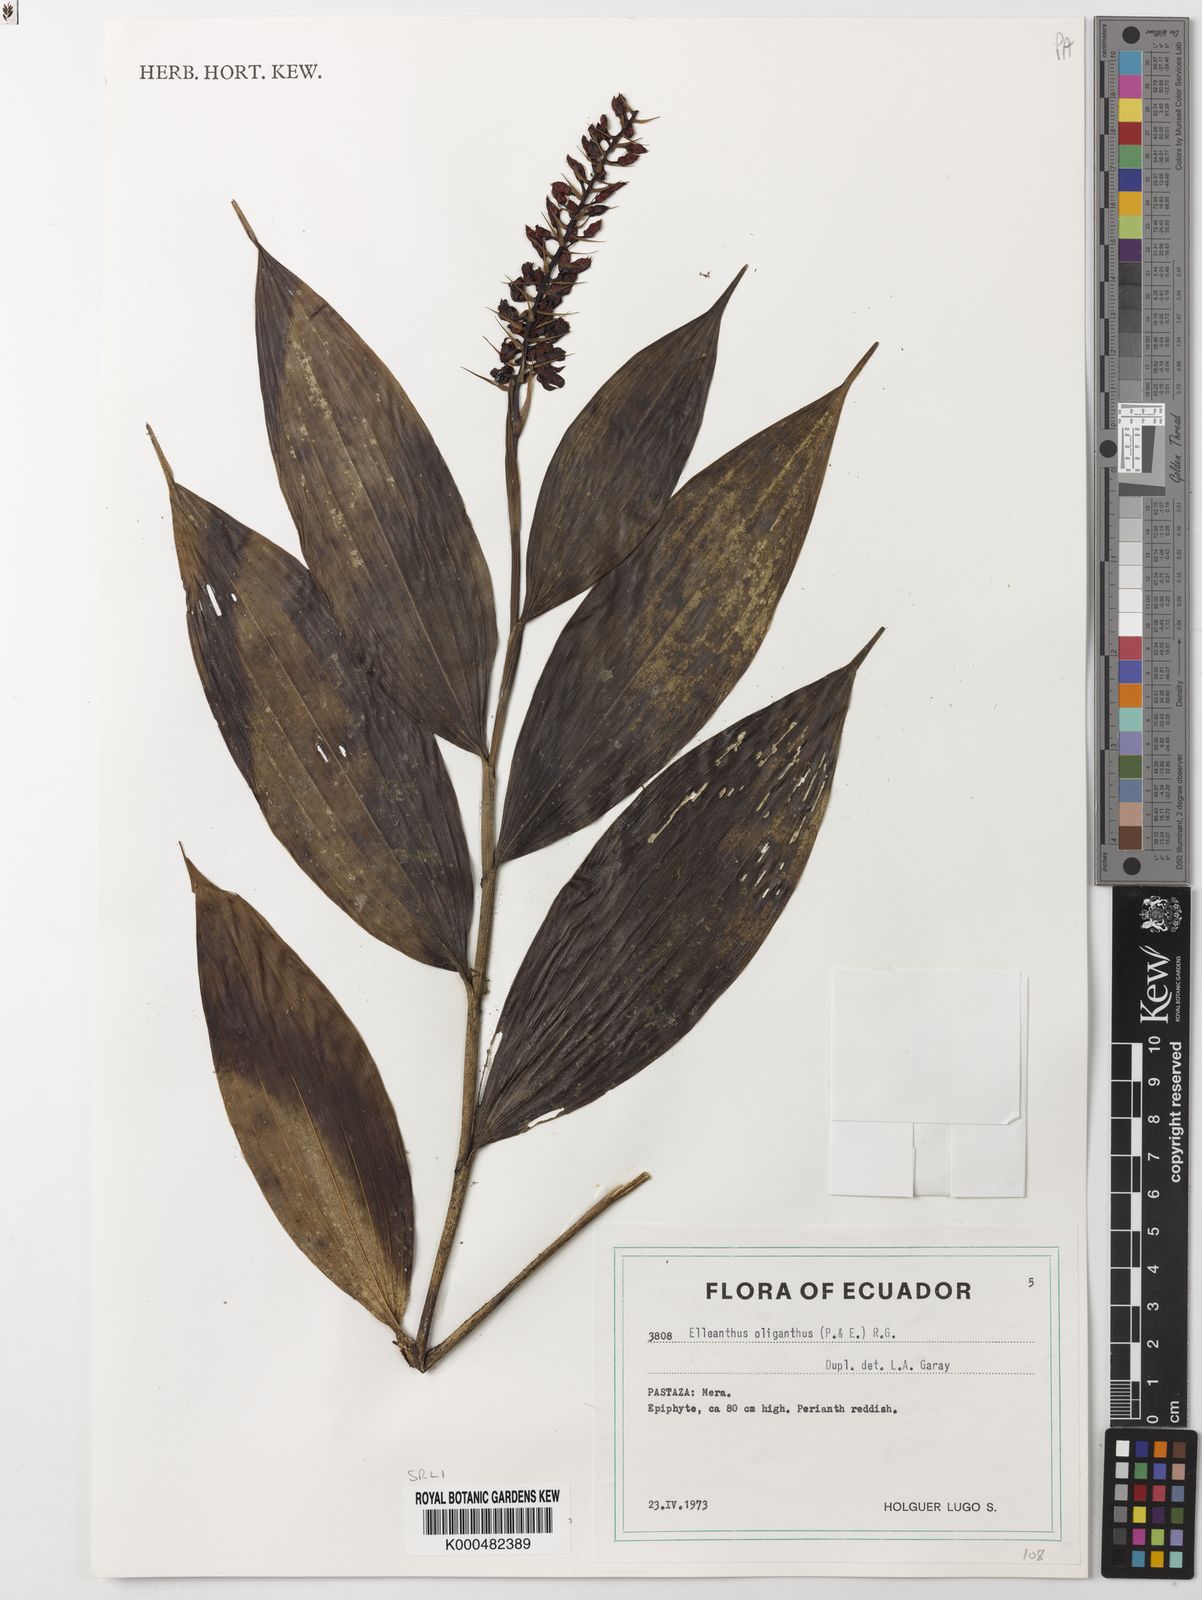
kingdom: Plantae
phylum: Tracheophyta
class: Liliopsida
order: Asparagales
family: Orchidaceae
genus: Elleanthus
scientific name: Elleanthus oliganthus
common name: Sparse blooming elleanthus
